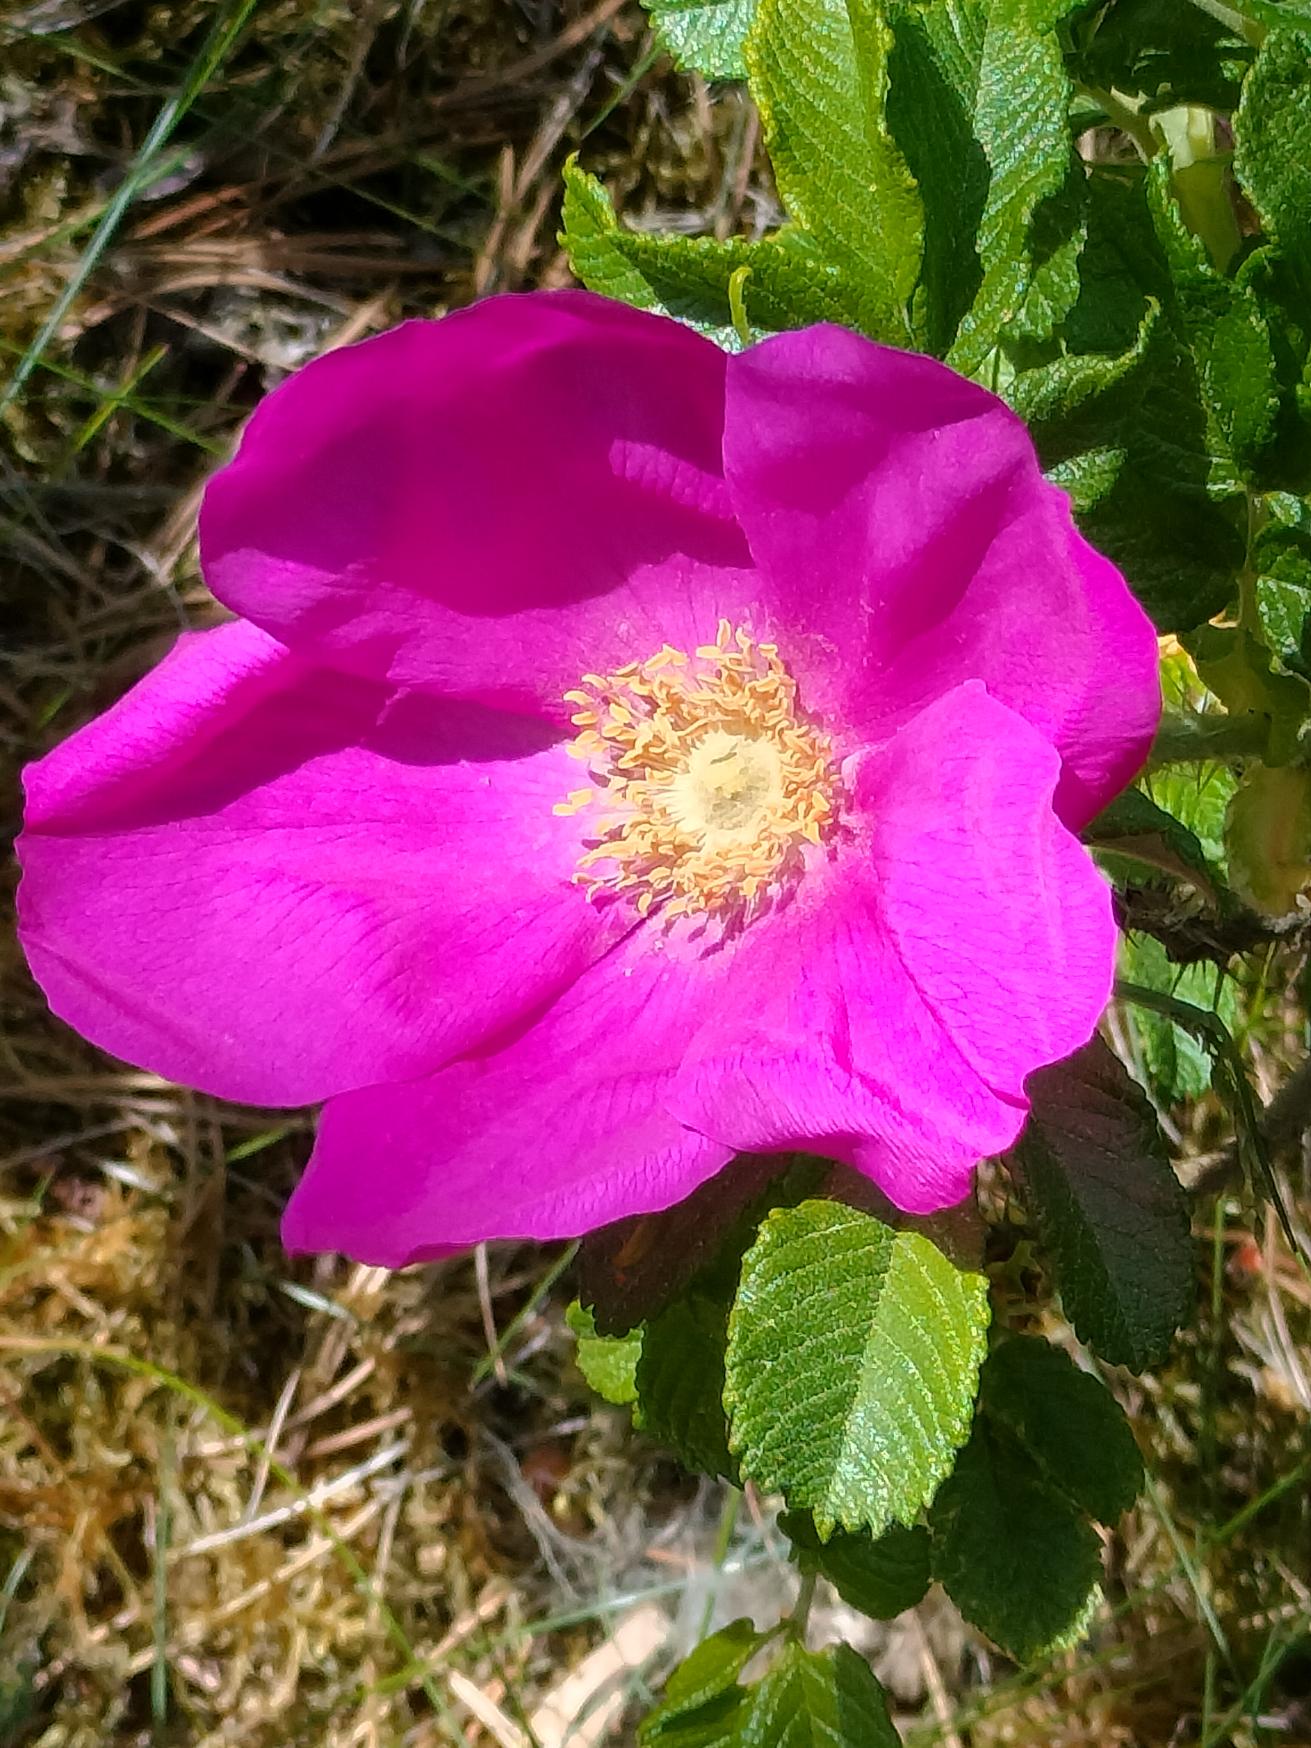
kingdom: Plantae
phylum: Tracheophyta
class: Magnoliopsida
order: Rosales
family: Rosaceae
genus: Rosa
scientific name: Rosa rugosa
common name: Rynket rose
